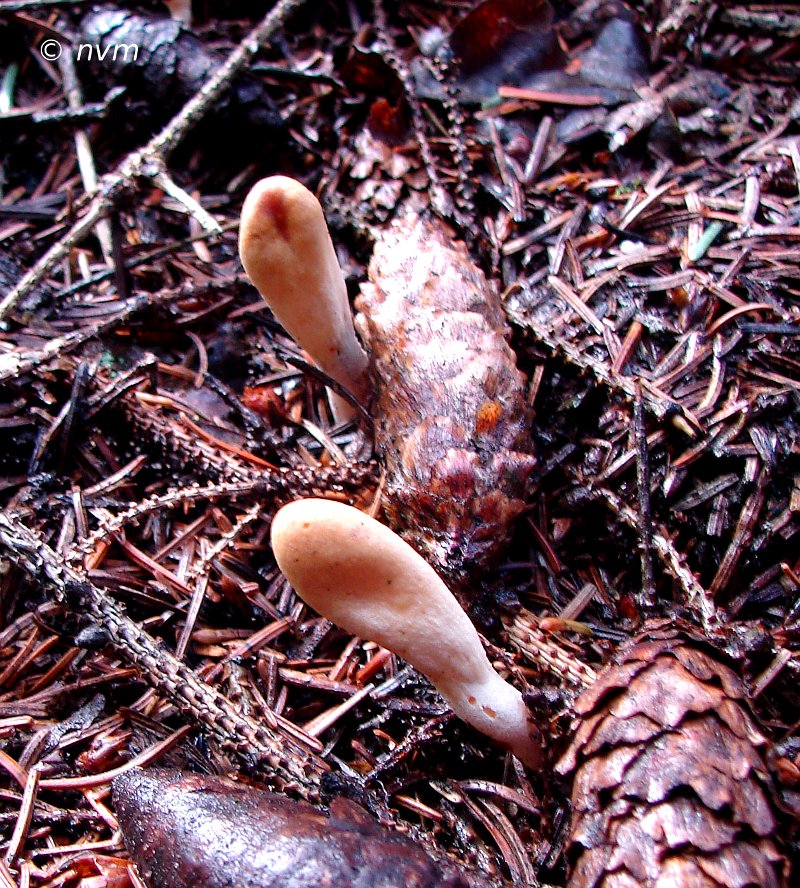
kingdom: Fungi
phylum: Ascomycota
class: Sordariomycetes
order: Hypocreales
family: Hypocreaceae
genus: Trichoderma
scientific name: Trichoderma leucopus
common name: lysstokket kødkerne
